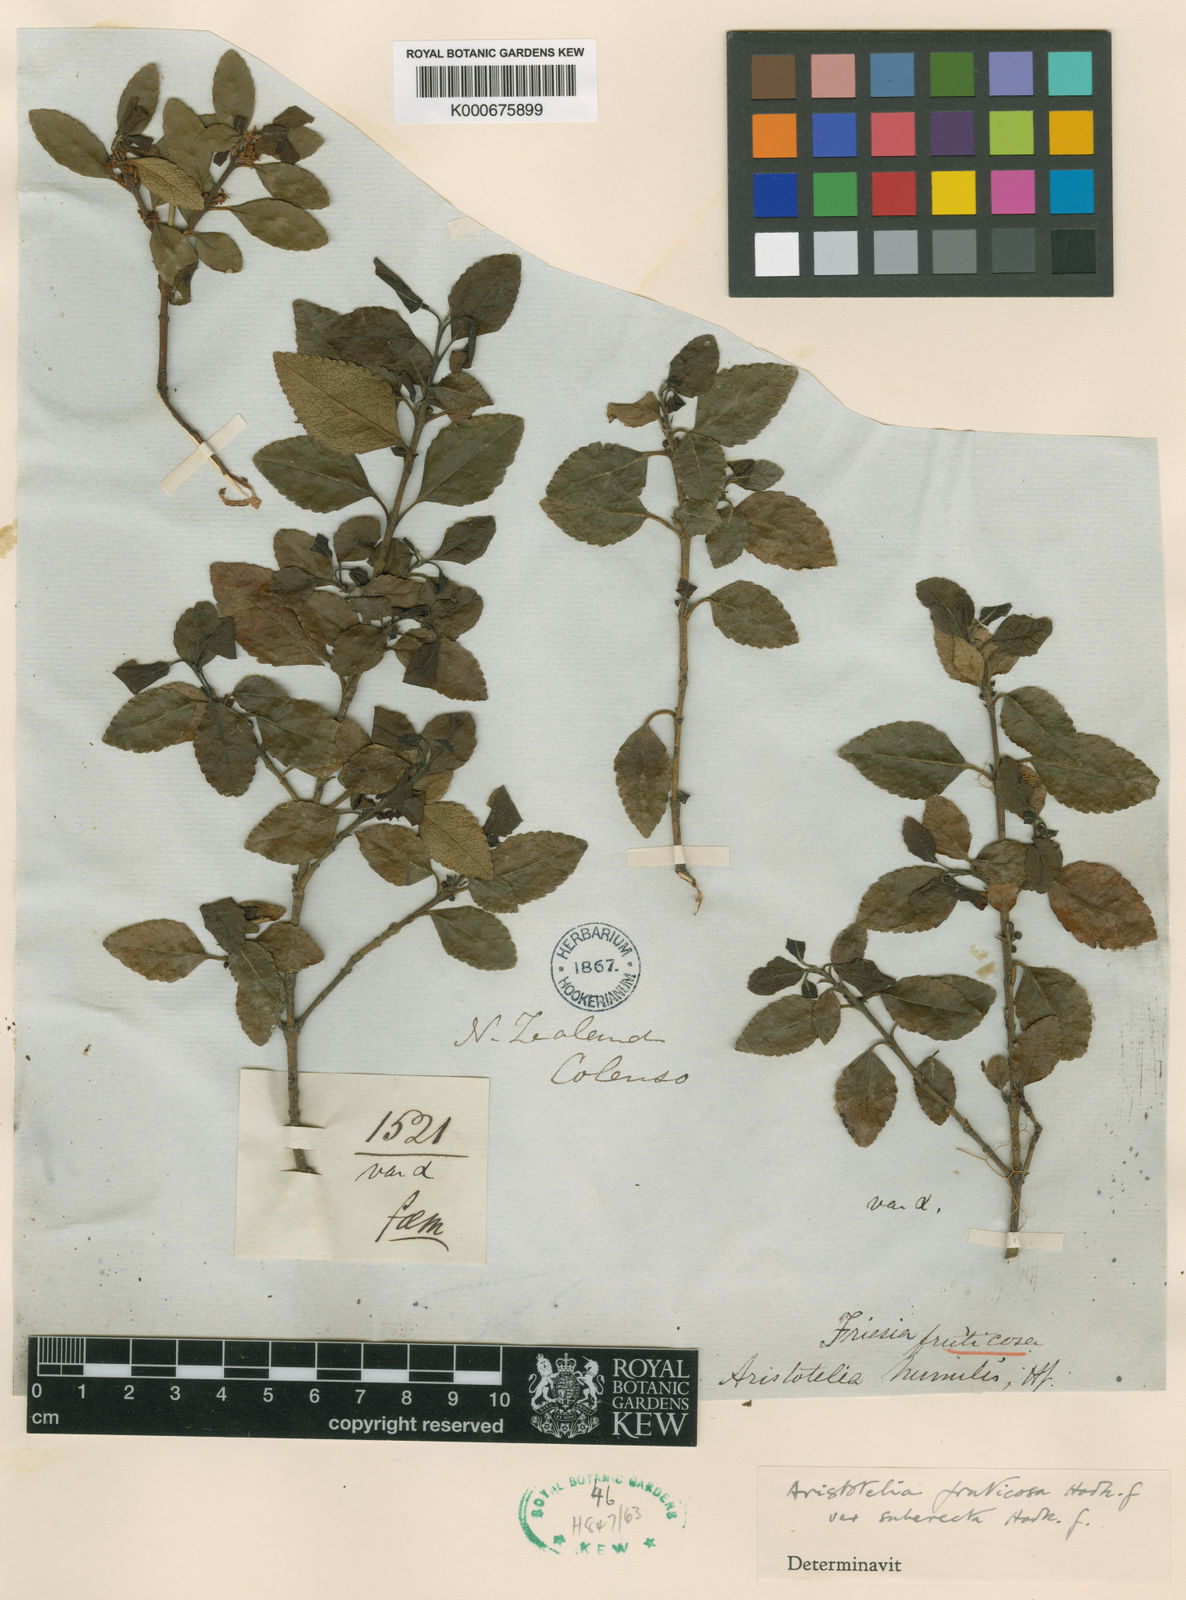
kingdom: Plantae
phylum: Tracheophyta
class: Magnoliopsida
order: Oxalidales
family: Elaeocarpaceae
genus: Aristotelia
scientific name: Aristotelia fruticosa
